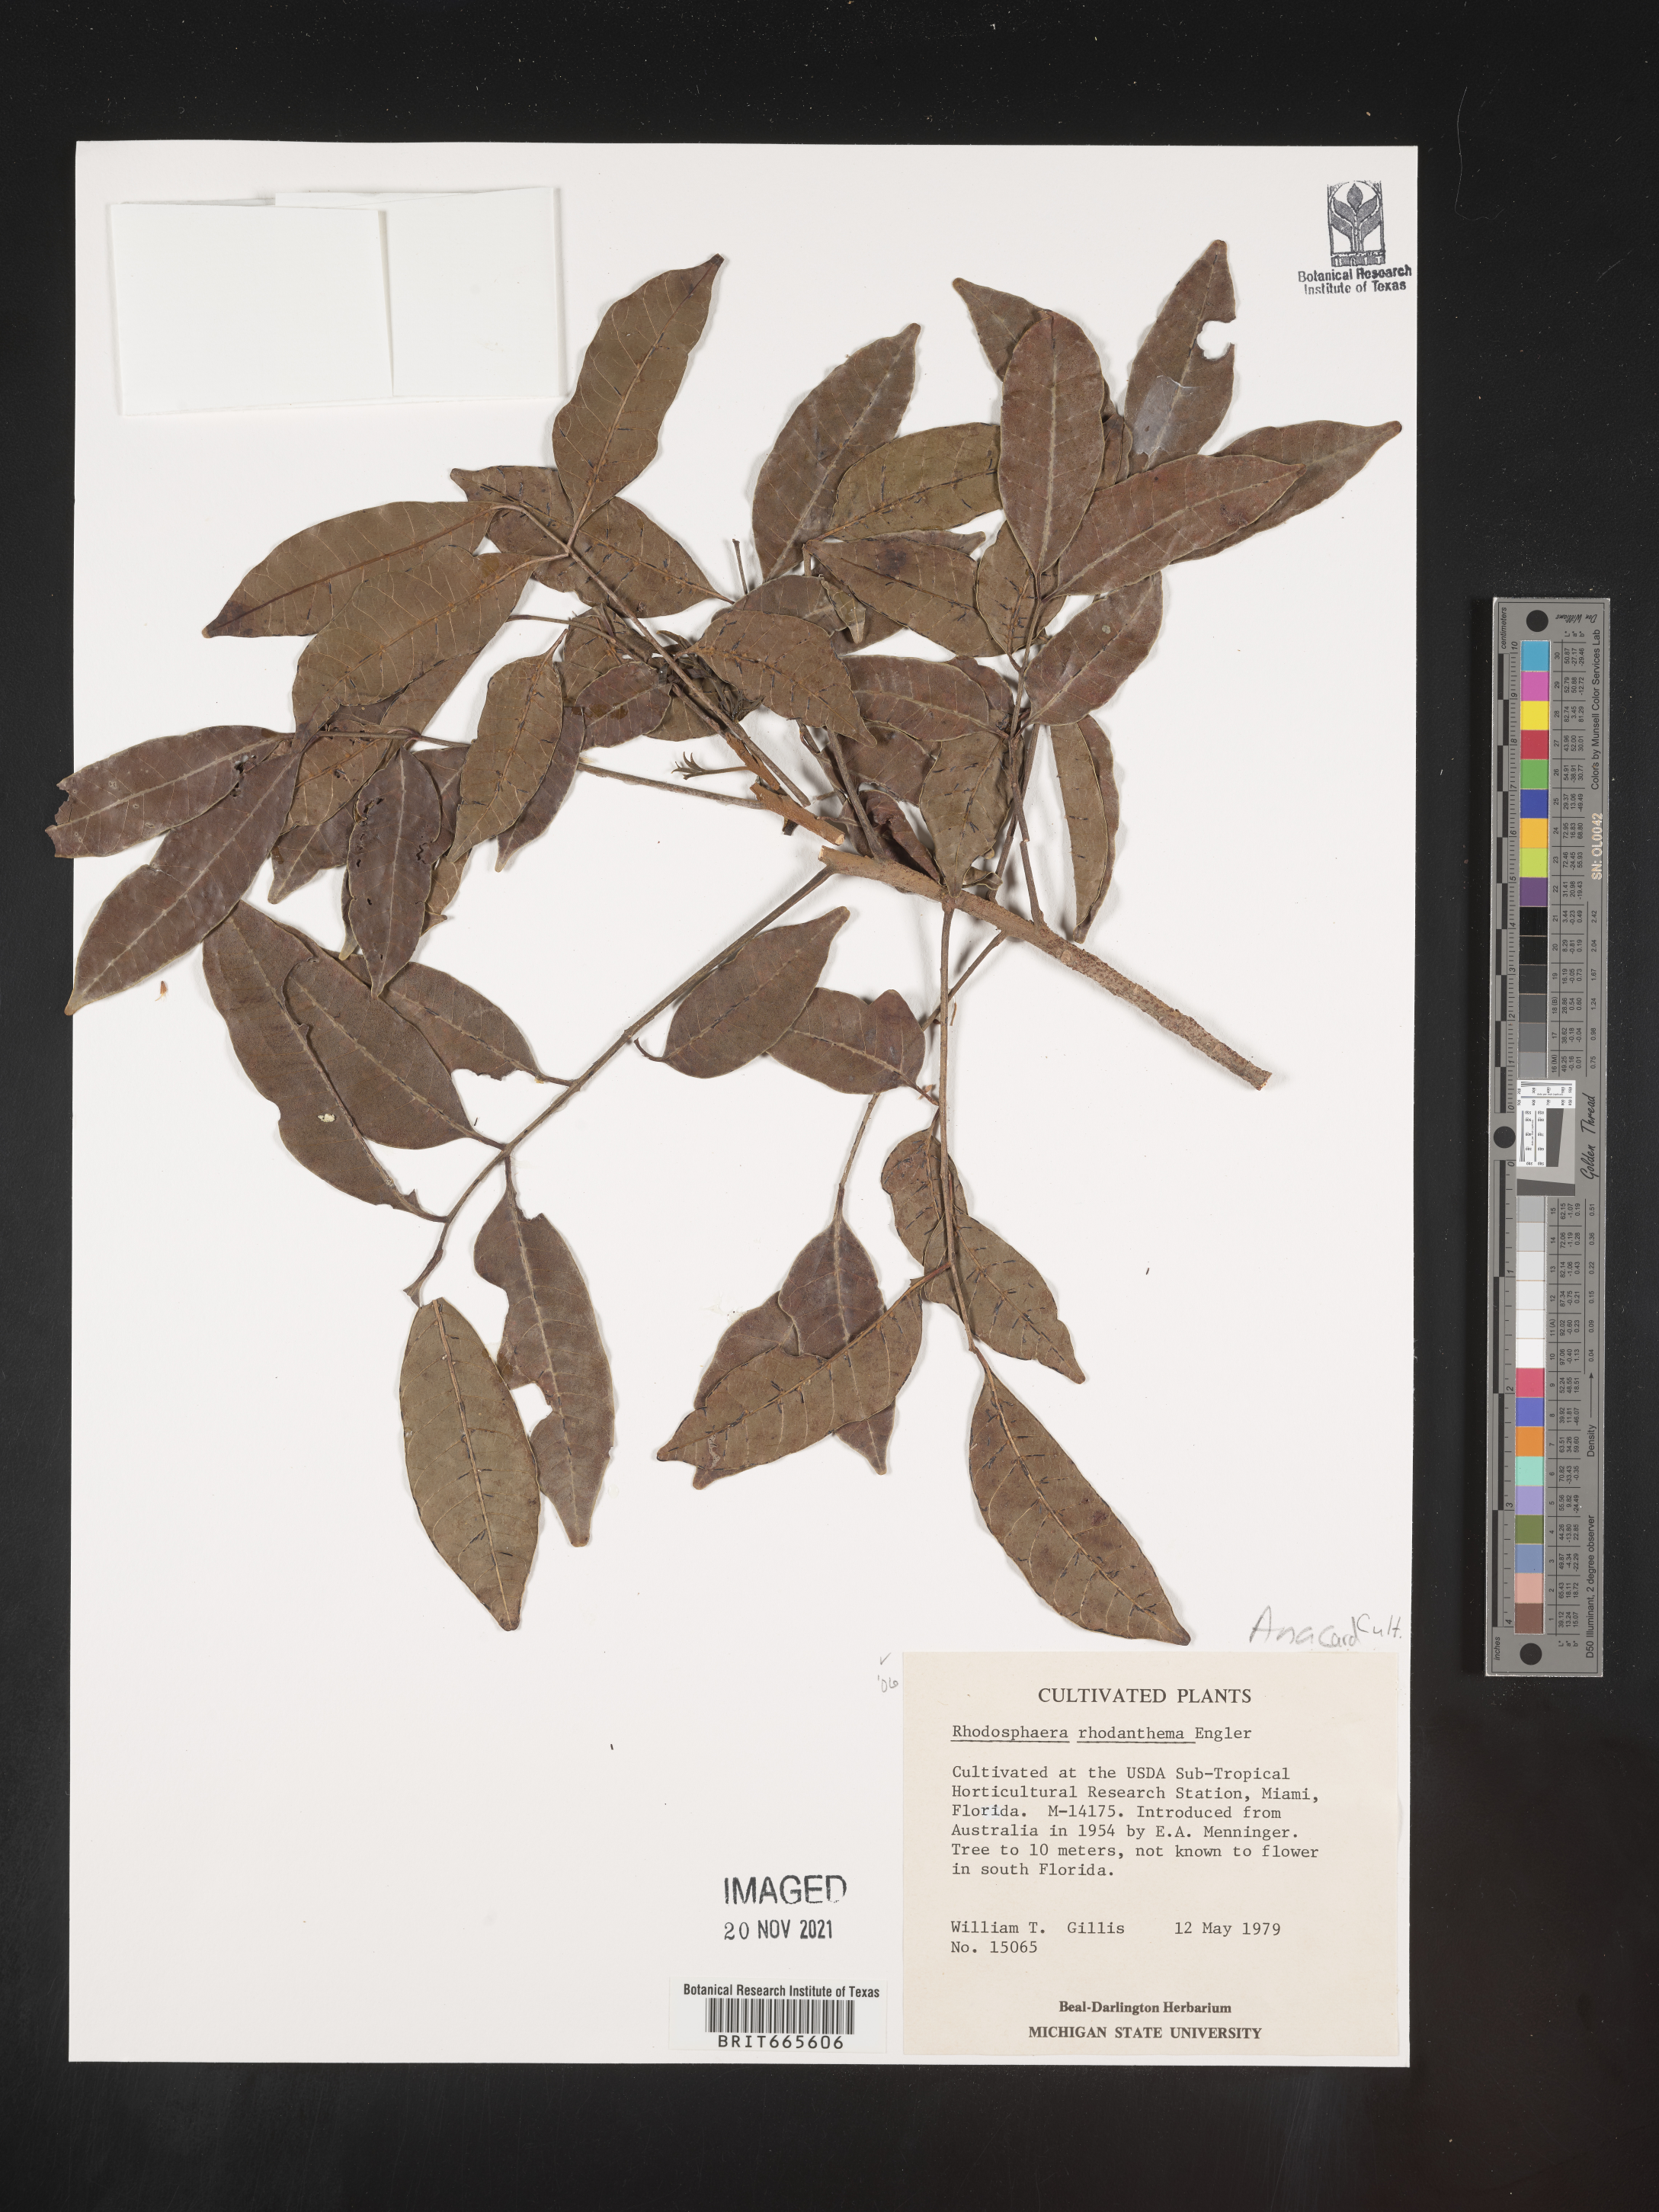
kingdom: Plantae
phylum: Tracheophyta
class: Magnoliopsida
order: Sapindales
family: Anacardiaceae
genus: Rhodosphaera
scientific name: Rhodosphaera rhodanthema
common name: Tulip satinwood
